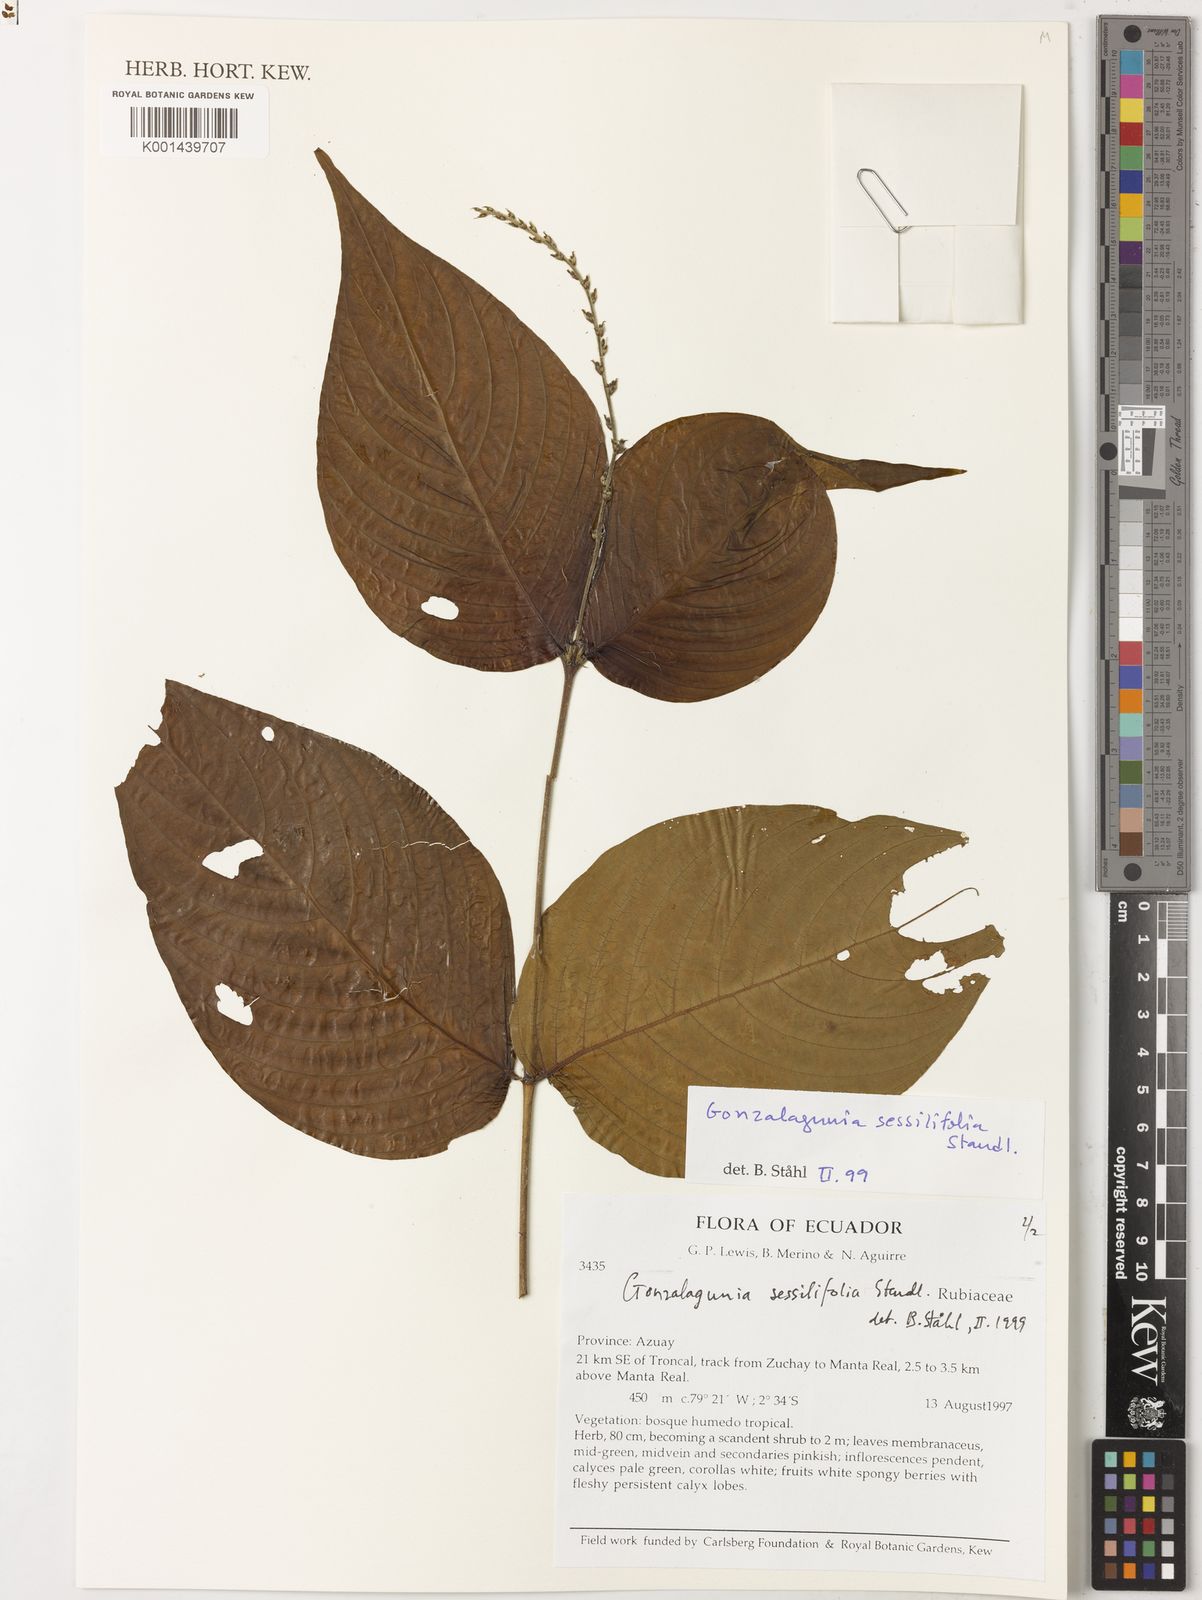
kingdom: Plantae
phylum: Tracheophyta
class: Magnoliopsida
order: Gentianales
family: Rubiaceae
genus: Gonzalagunia
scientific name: Gonzalagunia
